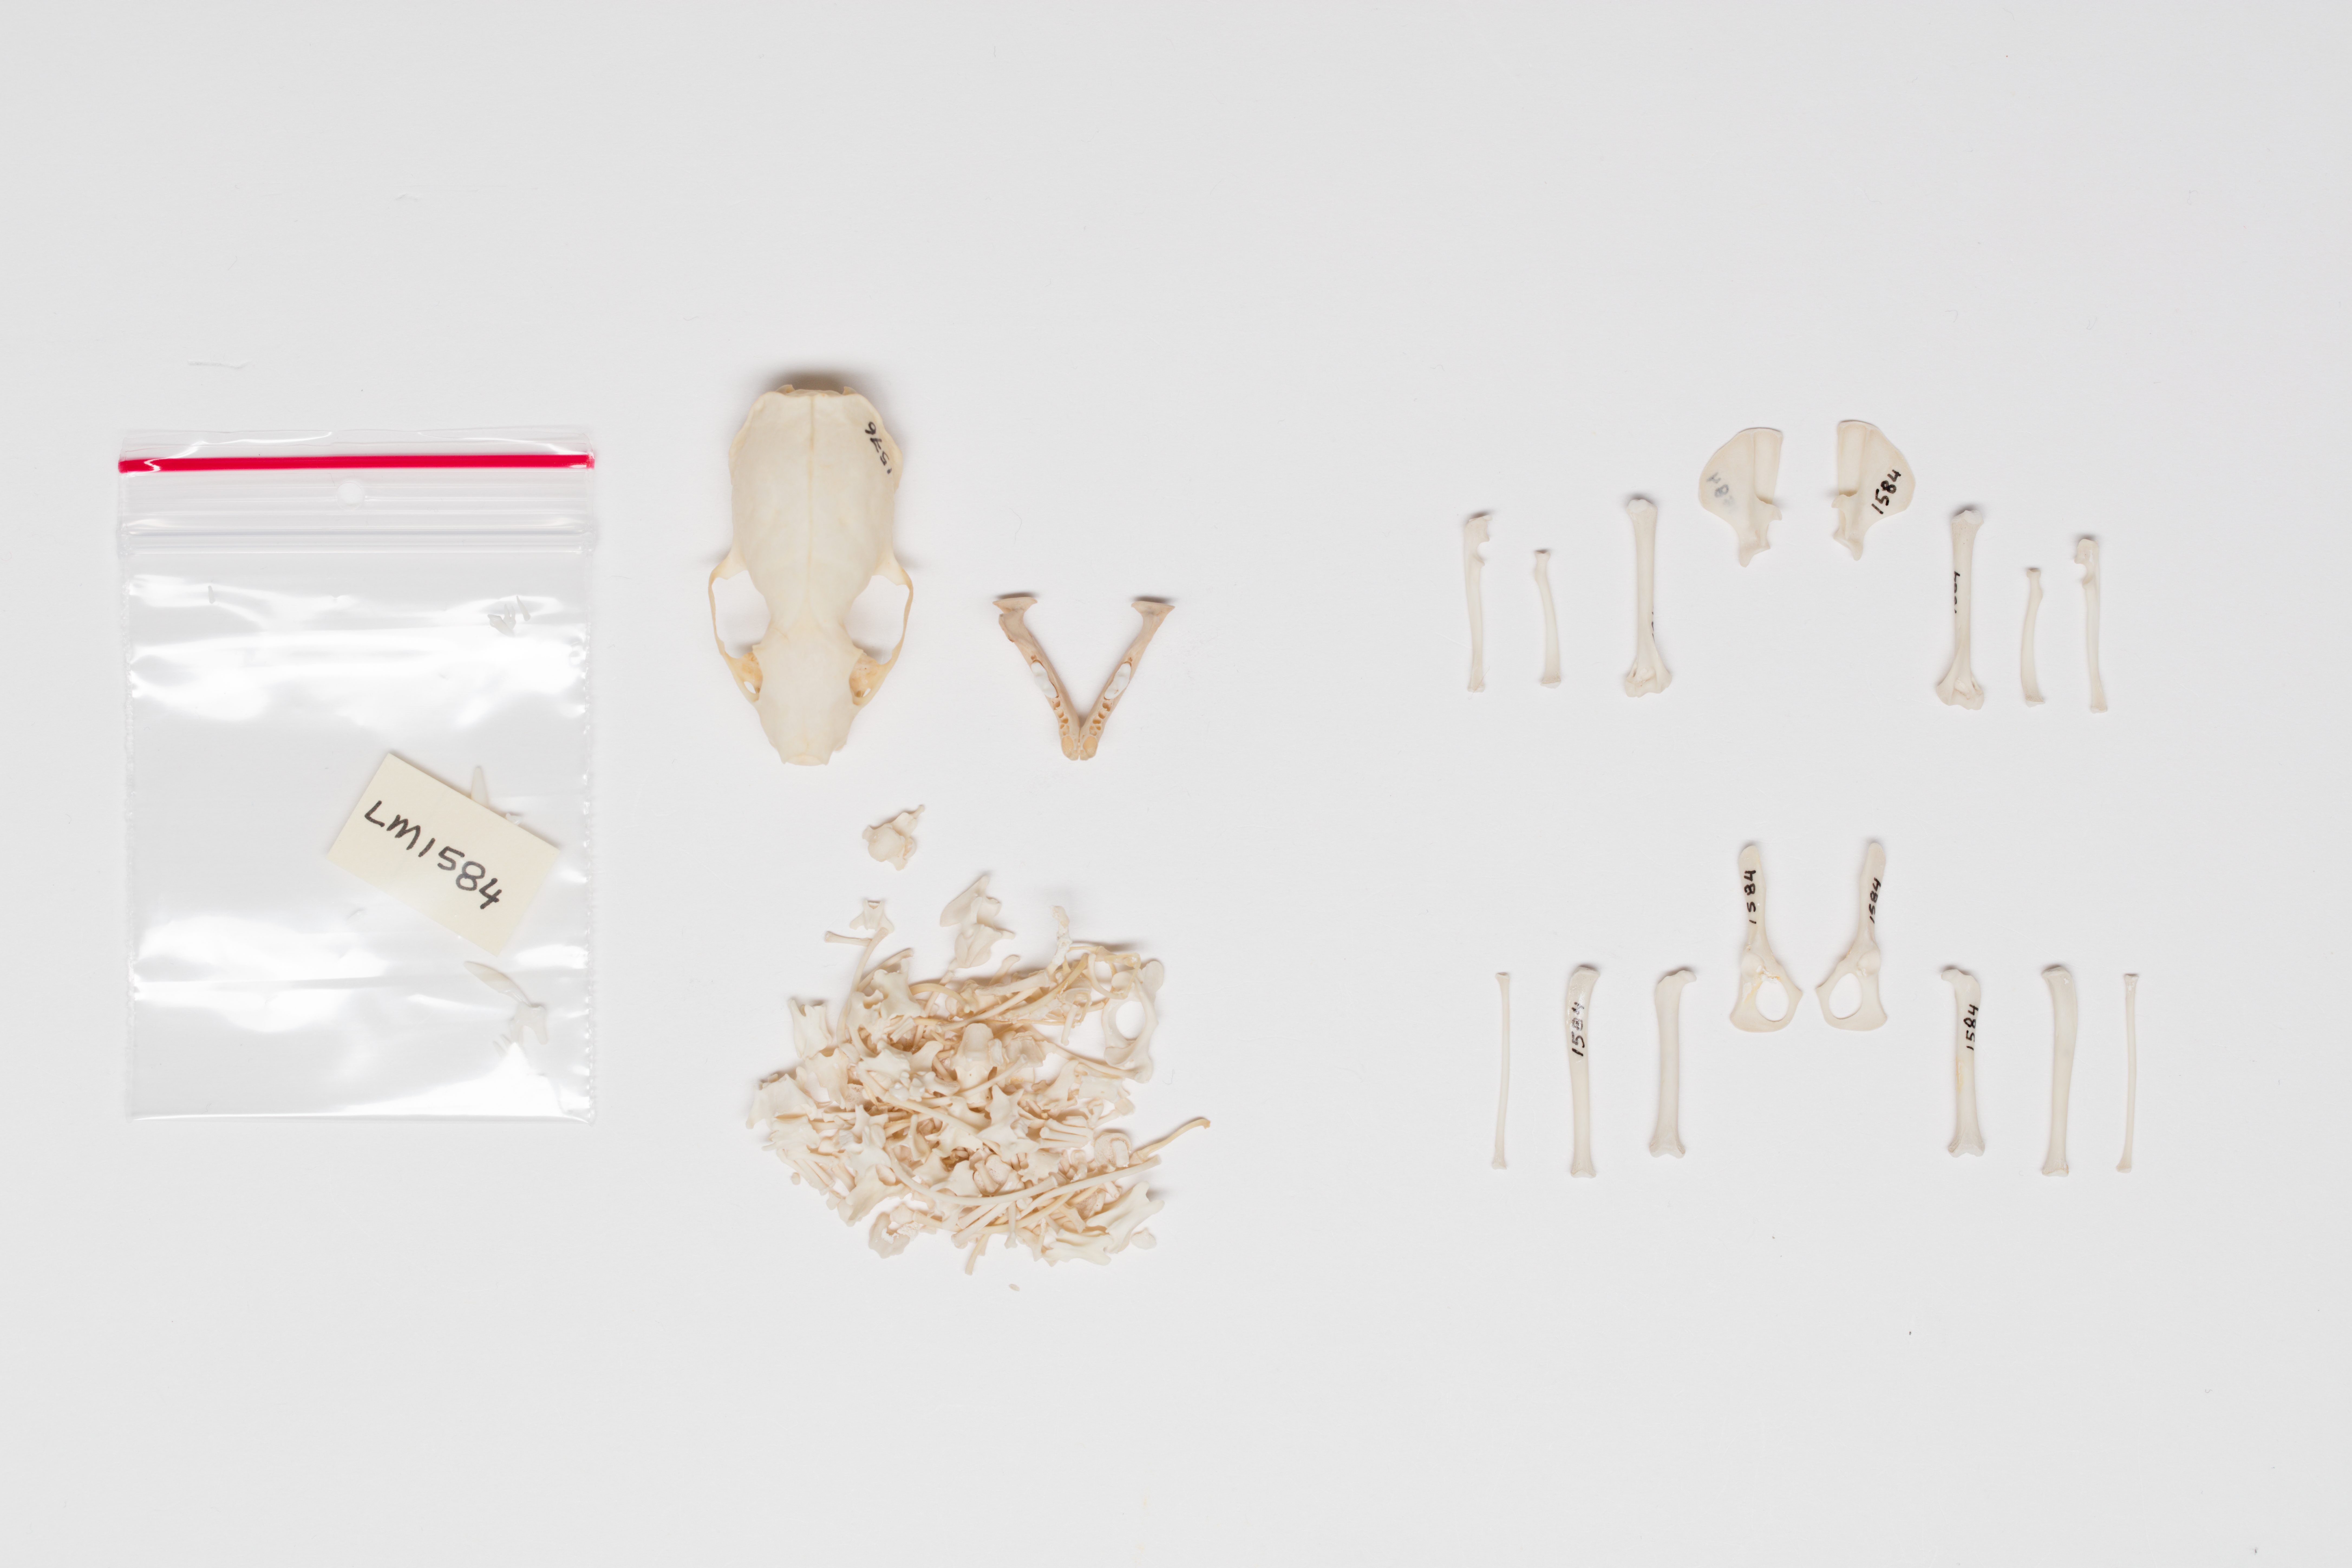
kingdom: Animalia
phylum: Chordata
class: Mammalia
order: Carnivora
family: Mustelidae
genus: Mustela
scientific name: Mustela nivalis
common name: Least weasel
